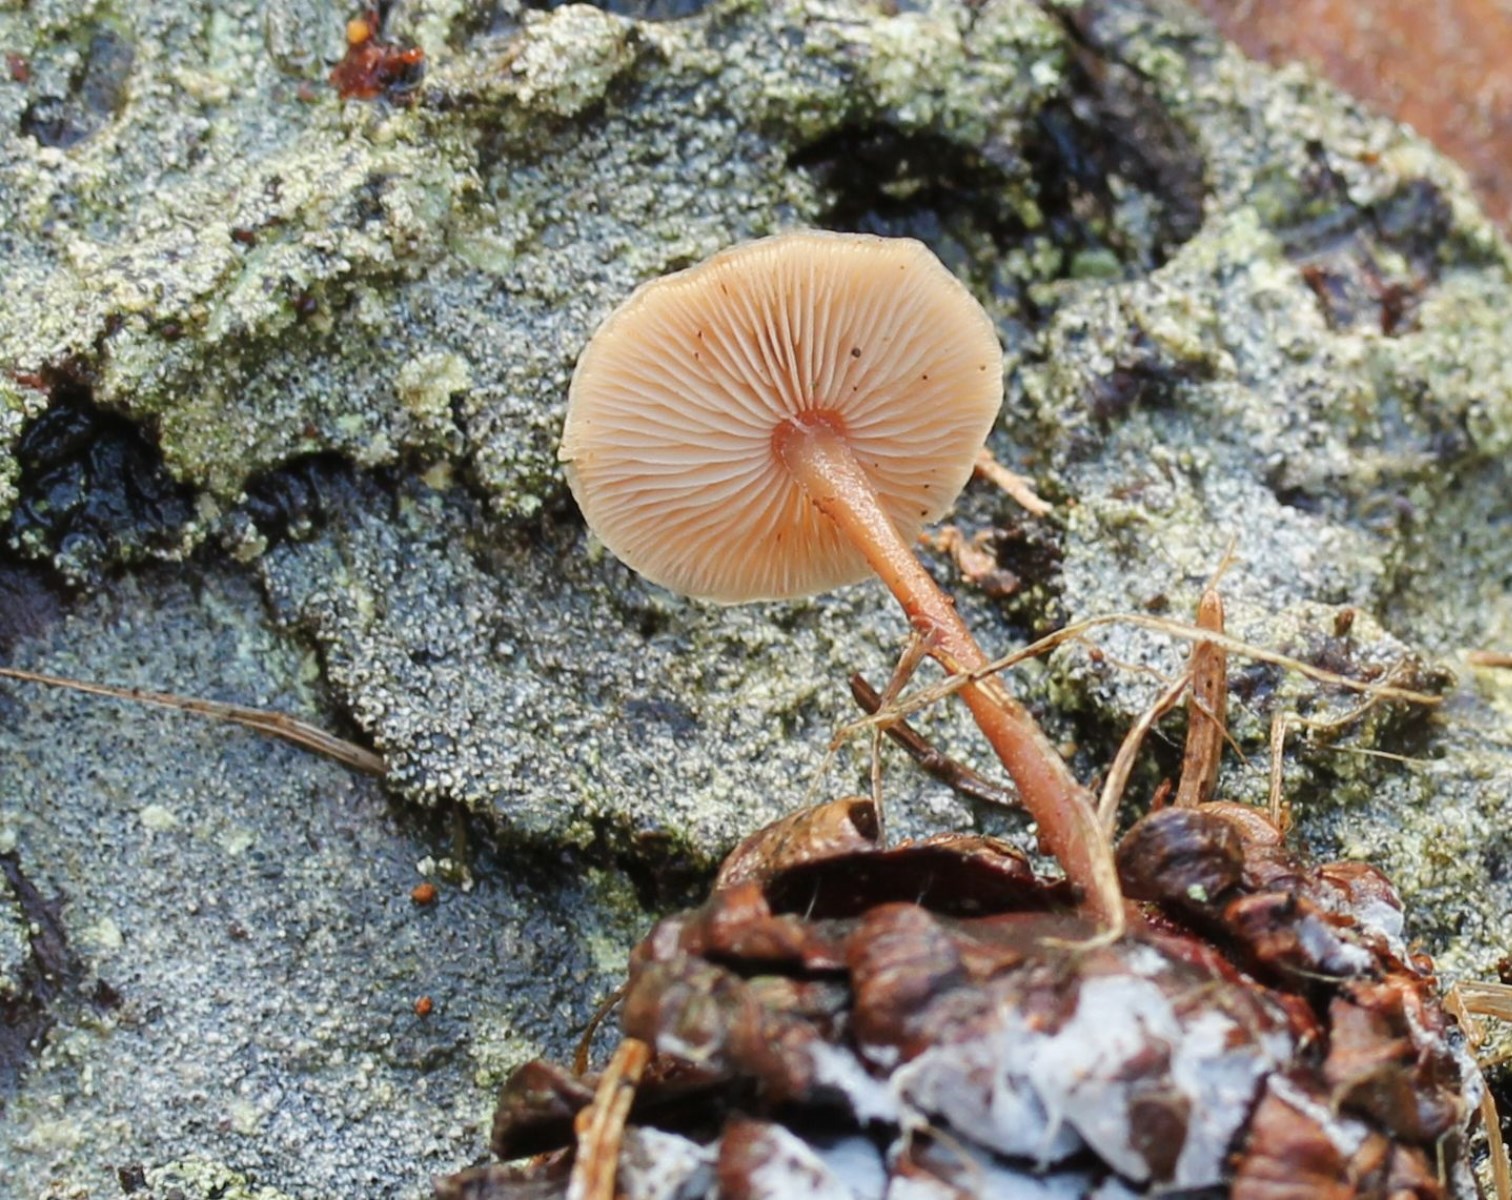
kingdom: Fungi
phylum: Basidiomycota
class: Agaricomycetes
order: Agaricales
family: Marasmiaceae
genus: Baeospora
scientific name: Baeospora myosura
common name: koglebruskhat
